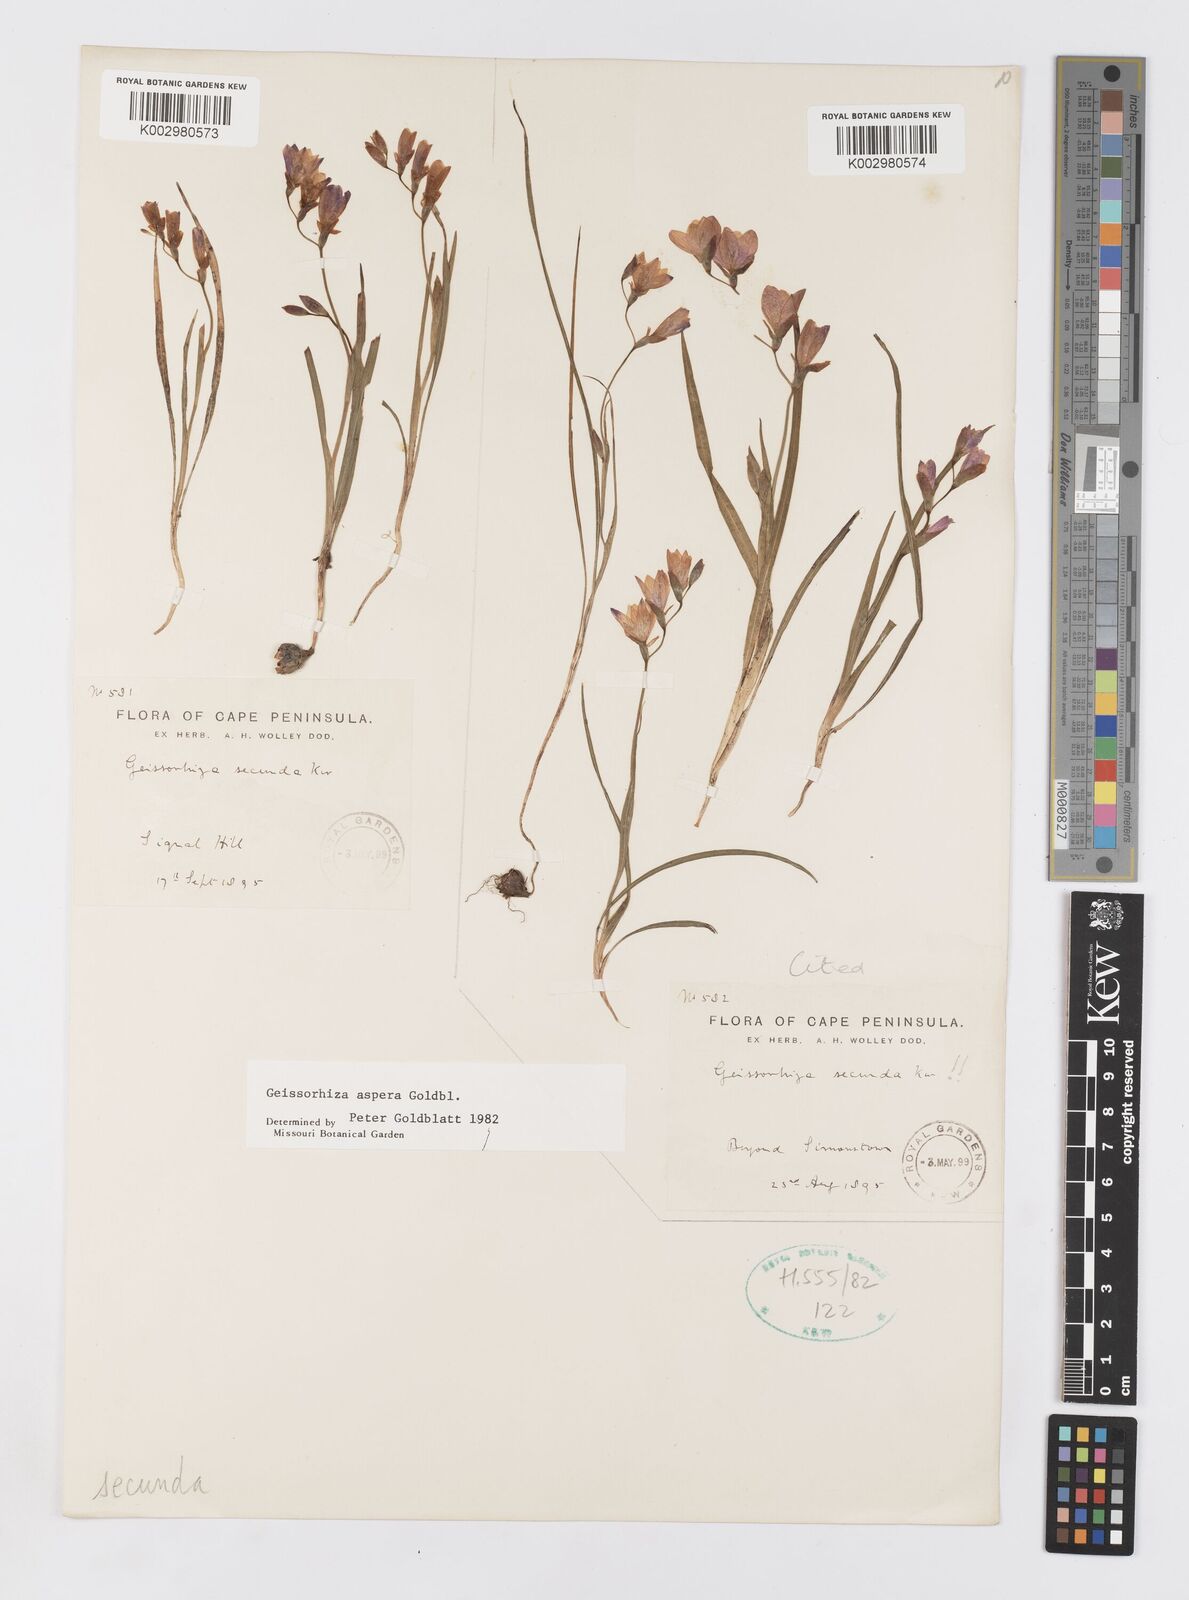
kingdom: Plantae
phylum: Tracheophyta
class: Liliopsida
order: Asparagales
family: Iridaceae
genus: Geissorhiza
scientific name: Geissorhiza aspera
